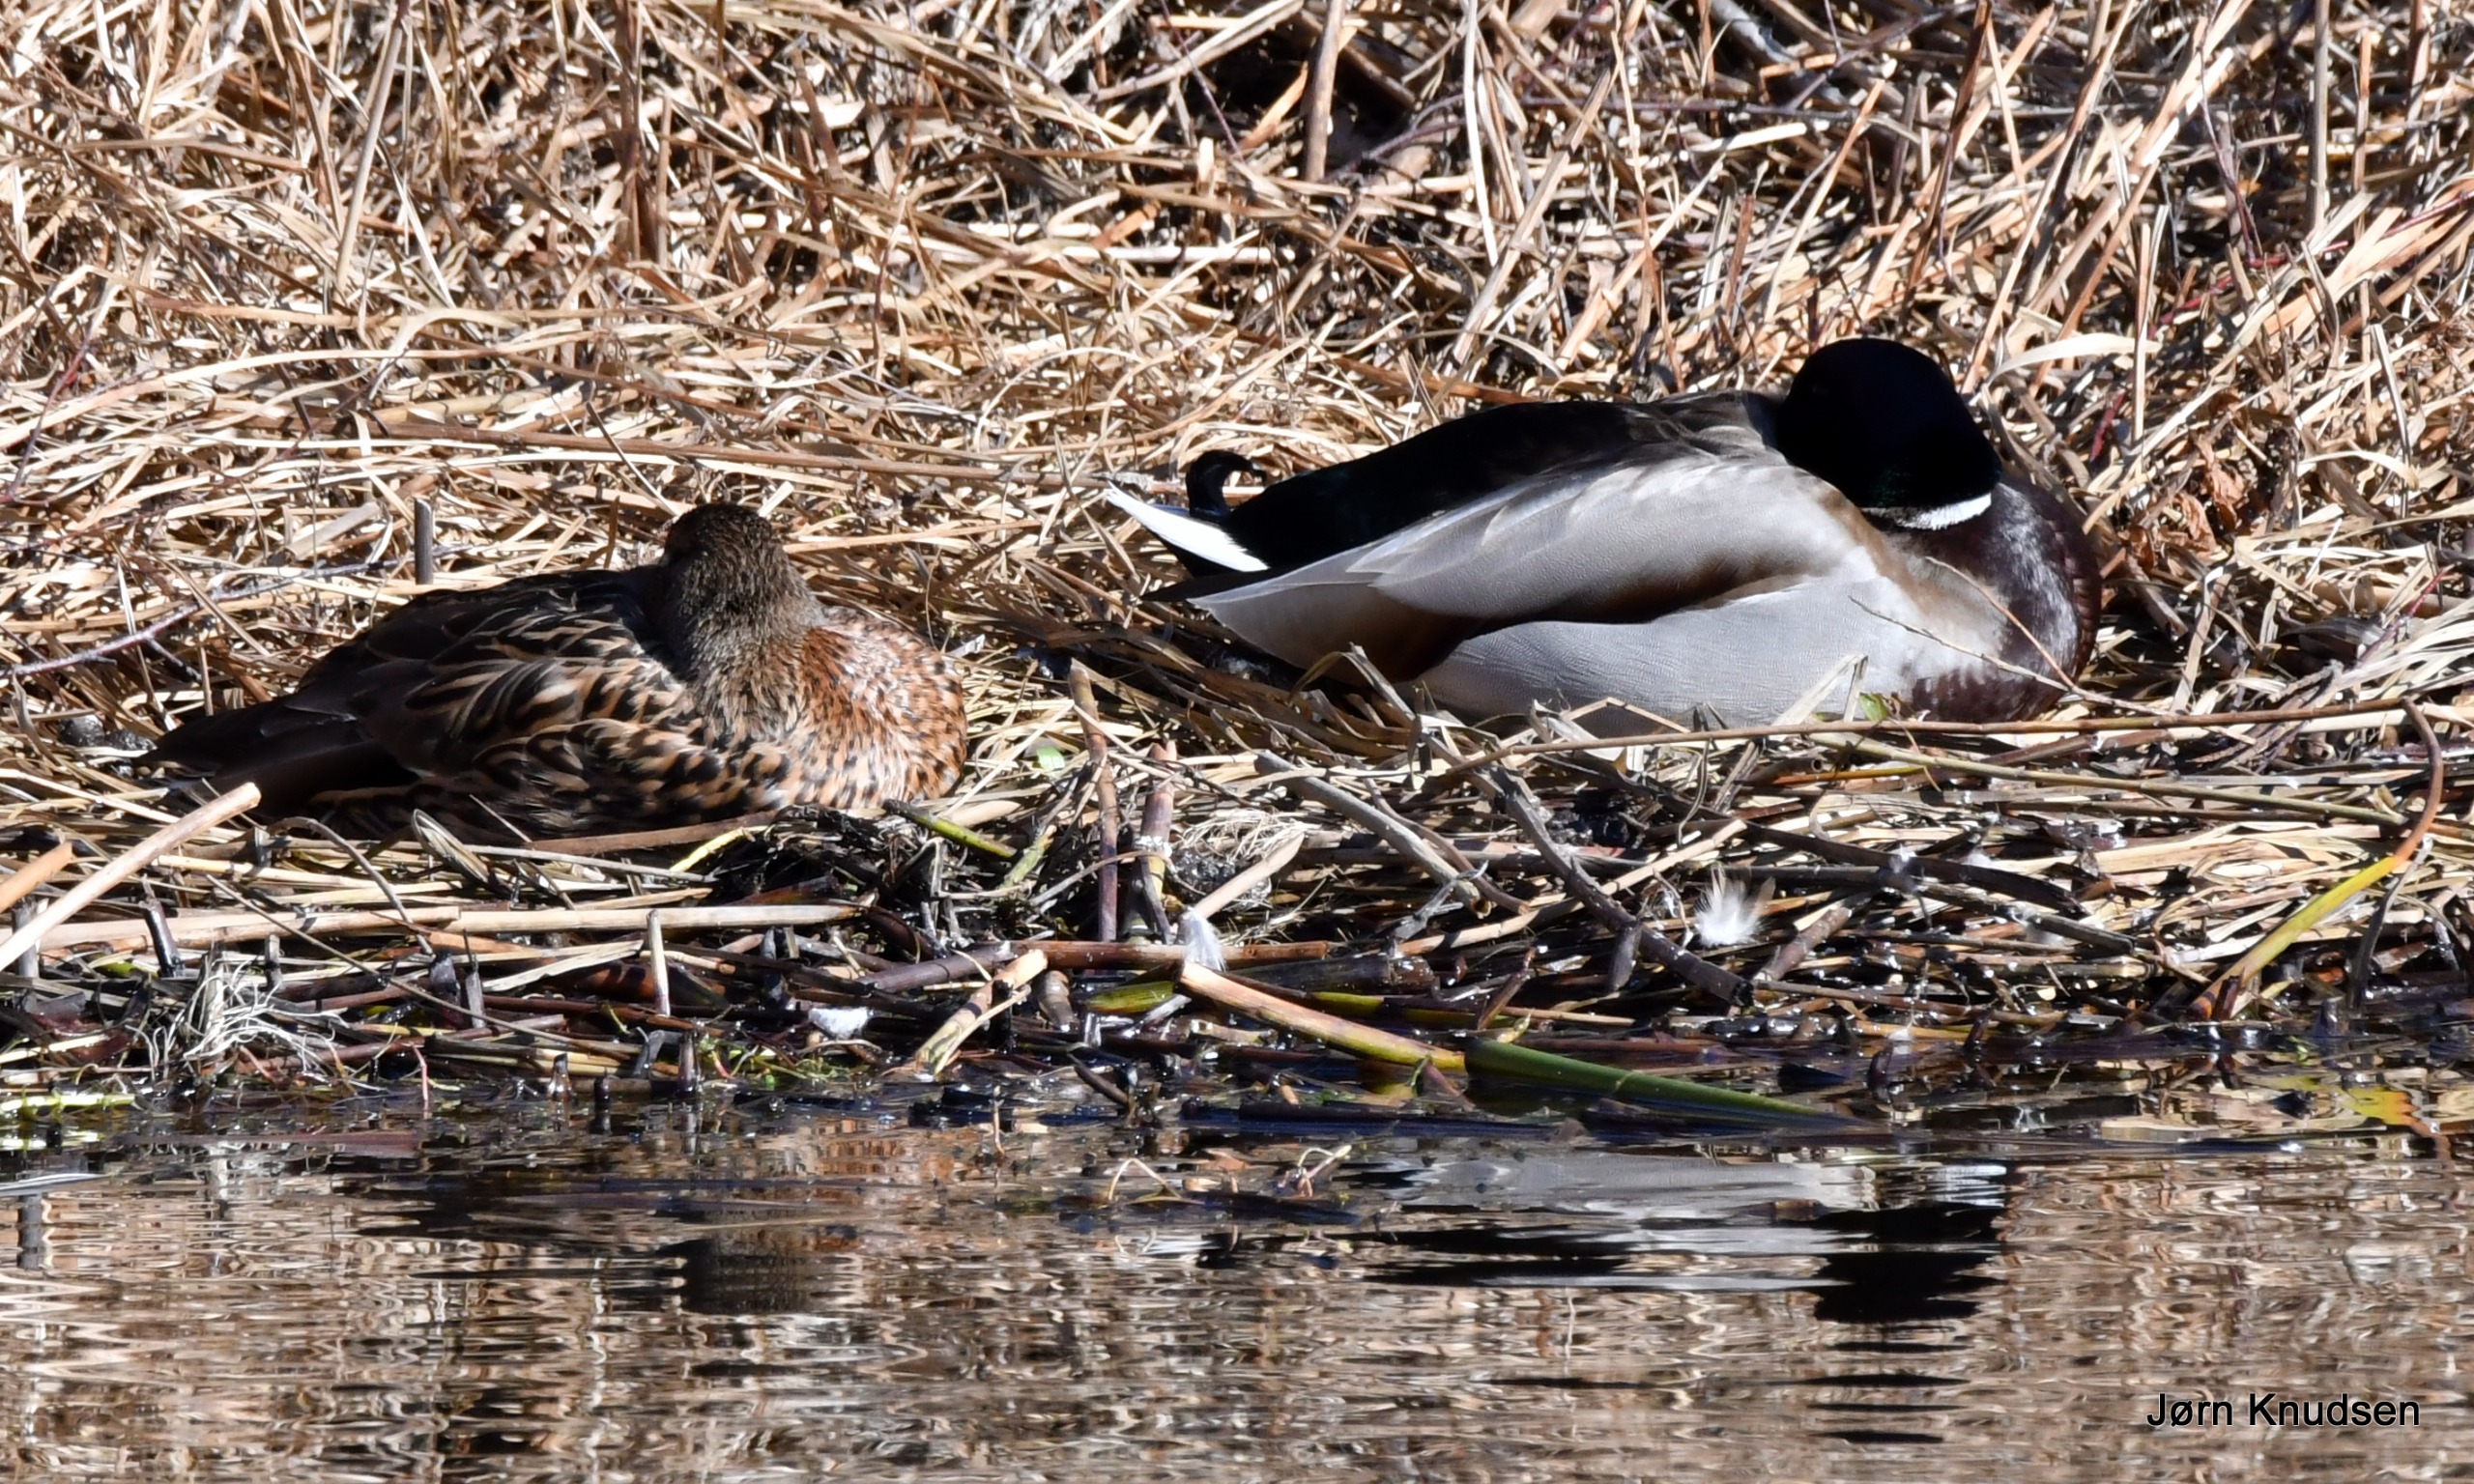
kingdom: Animalia
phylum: Chordata
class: Aves
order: Anseriformes
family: Anatidae
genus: Anas
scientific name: Anas platyrhynchos
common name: Gråand
